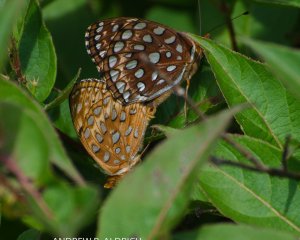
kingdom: Animalia
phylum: Arthropoda
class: Insecta
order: Lepidoptera
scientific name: Lepidoptera
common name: Butterflies
